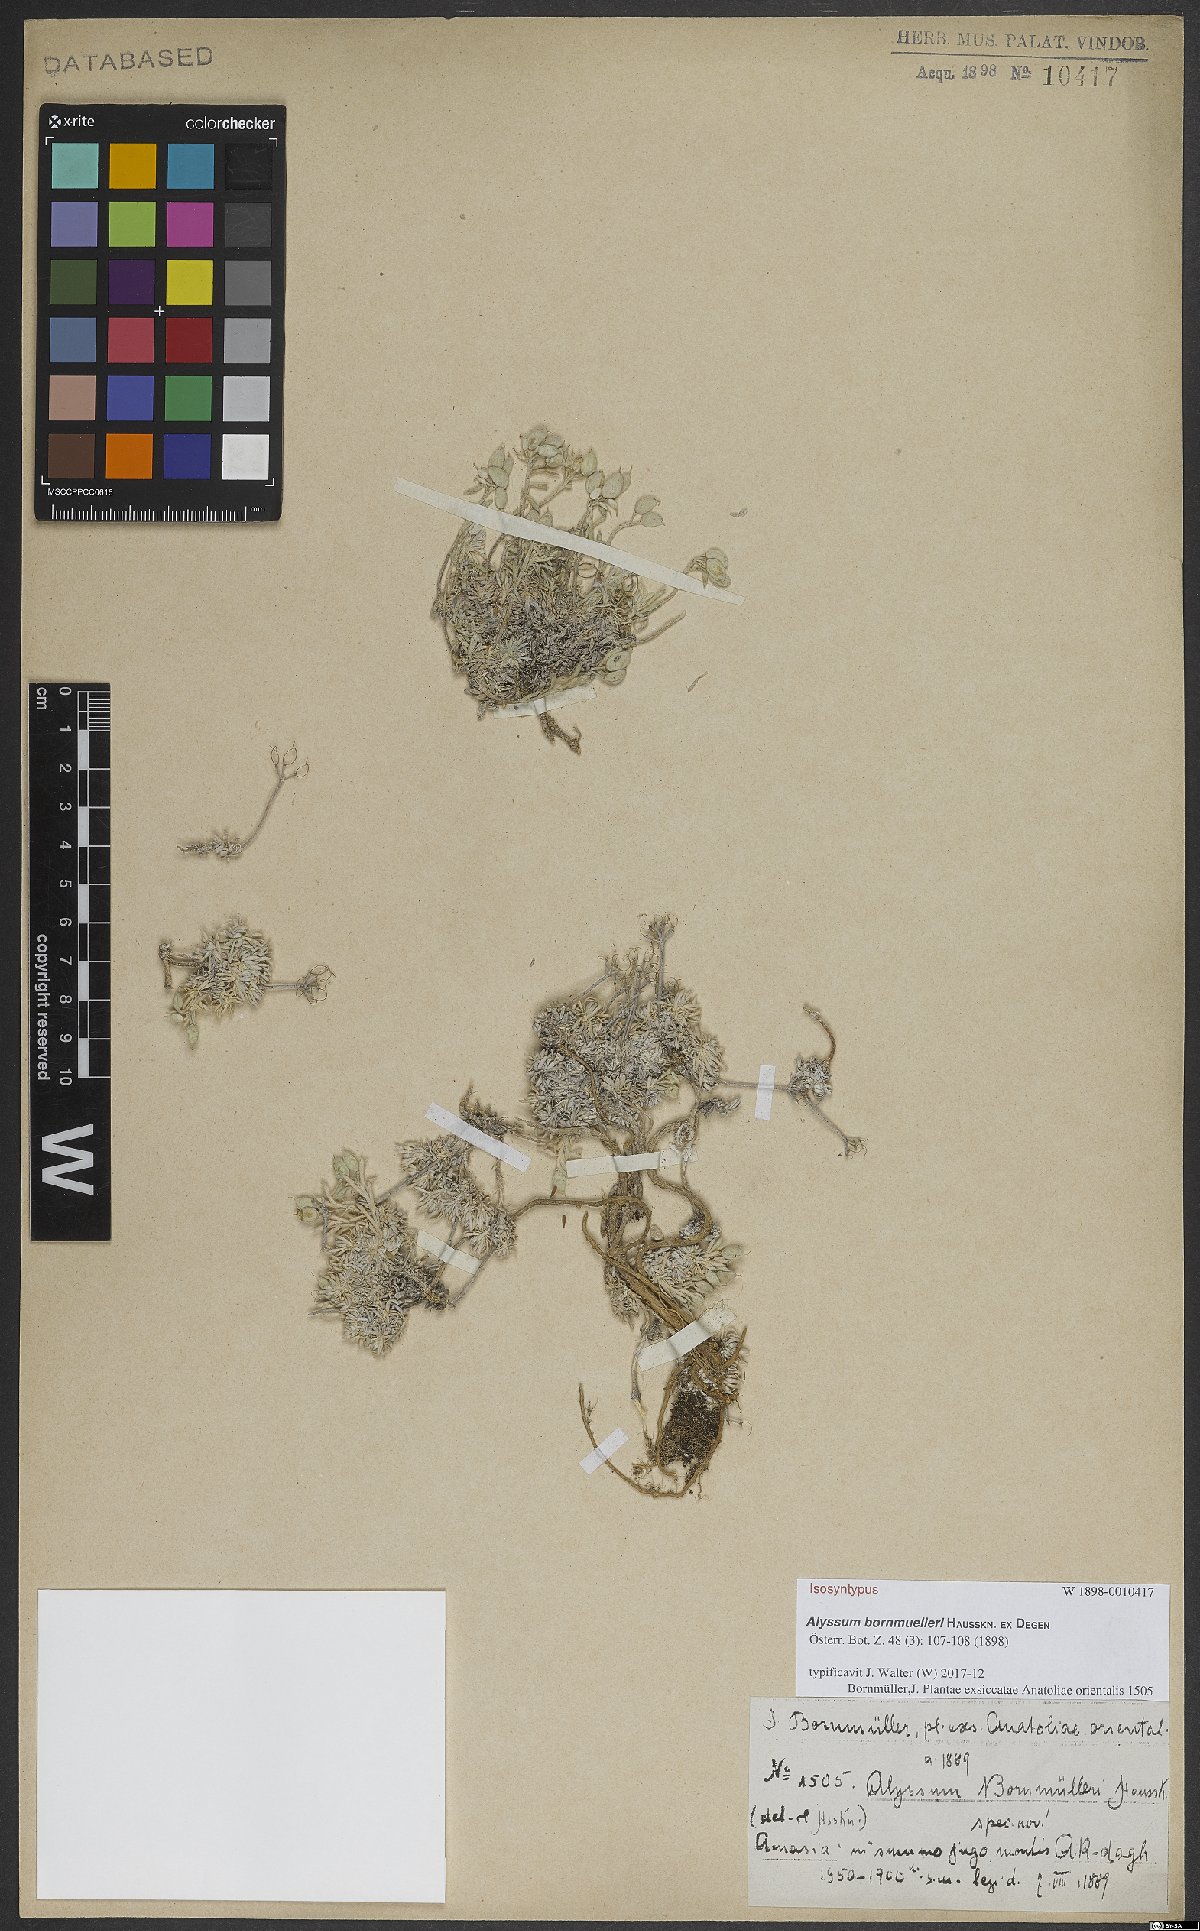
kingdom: Plantae
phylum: Tracheophyta
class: Magnoliopsida
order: Brassicales
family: Brassicaceae
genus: Alyssum
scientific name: Alyssum bornmuelleri
